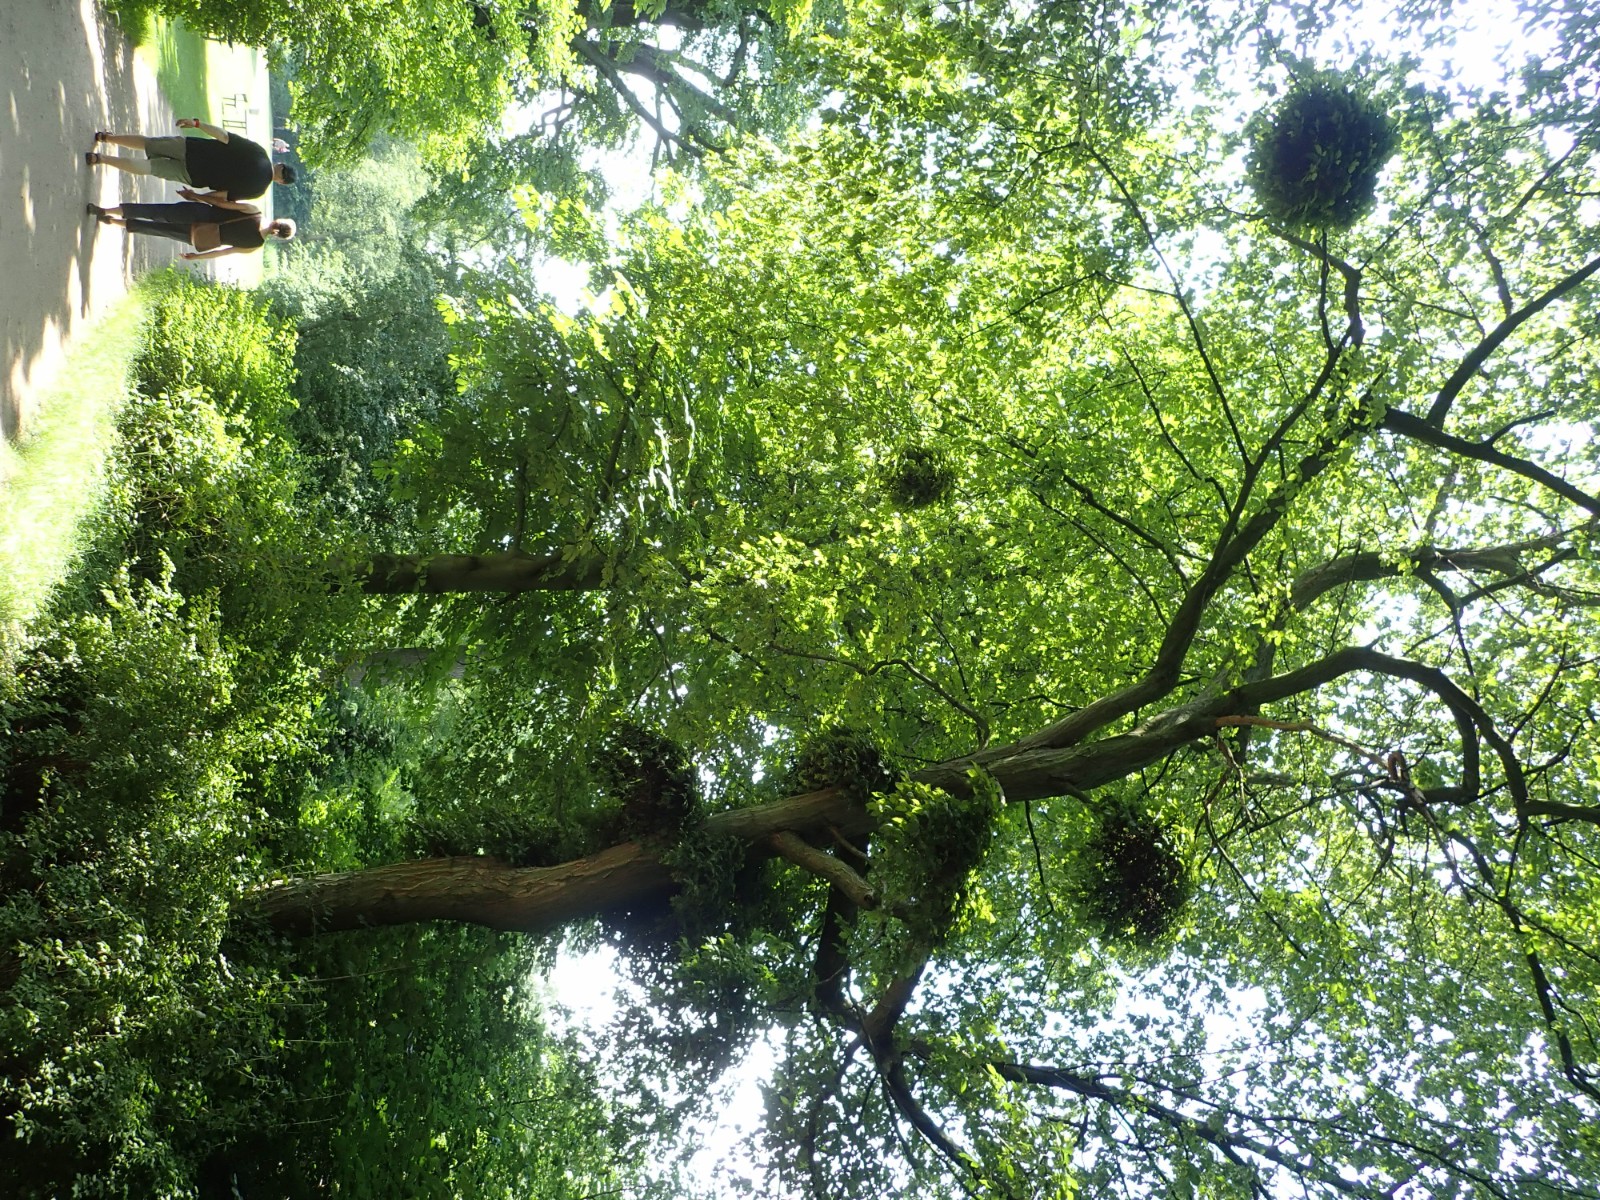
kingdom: Fungi
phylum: Ascomycota
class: Taphrinomycetes
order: Taphrinales
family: Taphrinaceae
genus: Taphrina
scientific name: Taphrina carpini
